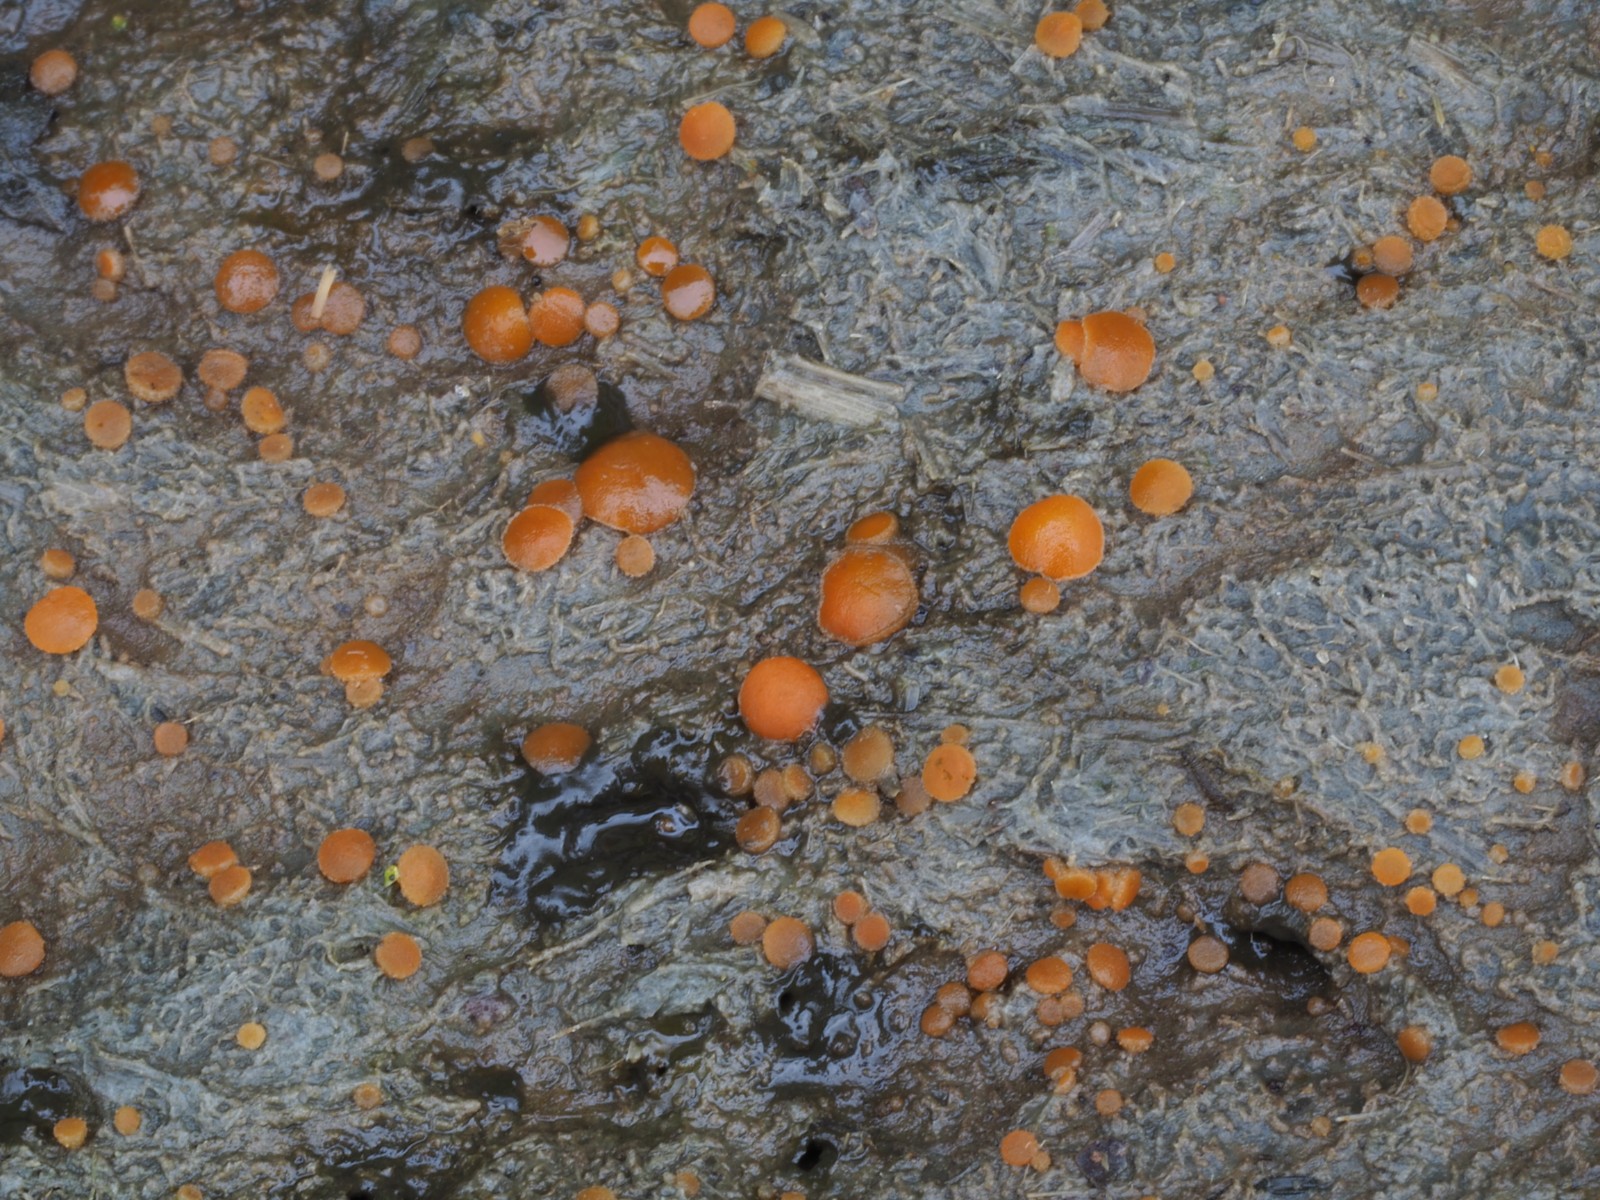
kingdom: Fungi
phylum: Ascomycota
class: Pezizomycetes
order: Pezizales
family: Pyronemataceae
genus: Cheilymenia
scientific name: Cheilymenia granulata
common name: møgbæger
